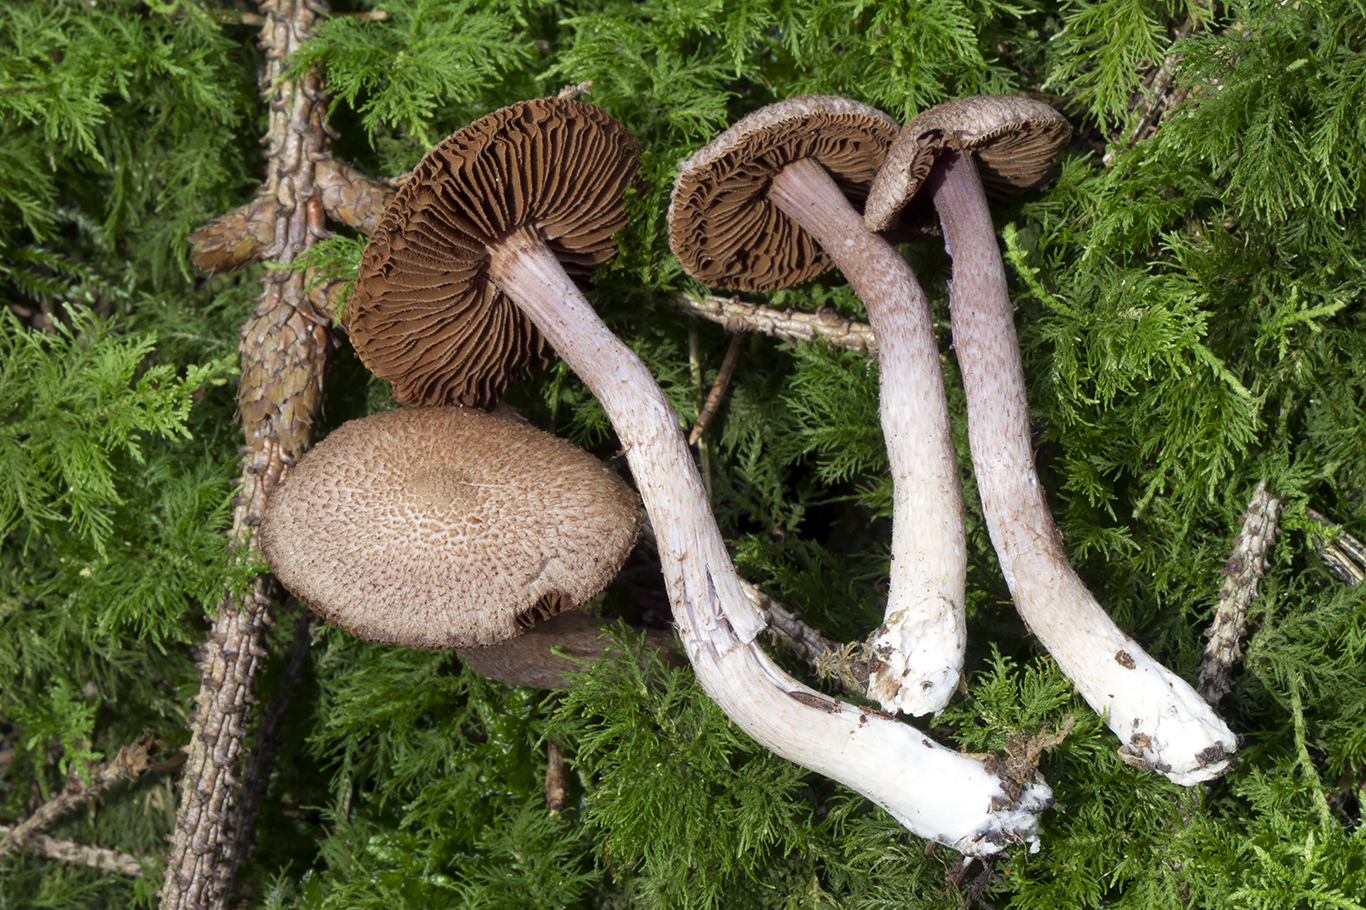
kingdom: Fungi
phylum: Basidiomycota
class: Agaricomycetes
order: Agaricales
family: Inocybaceae
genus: Inocybe
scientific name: Inocybe cincinnata
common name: lillabladet trævlhat
